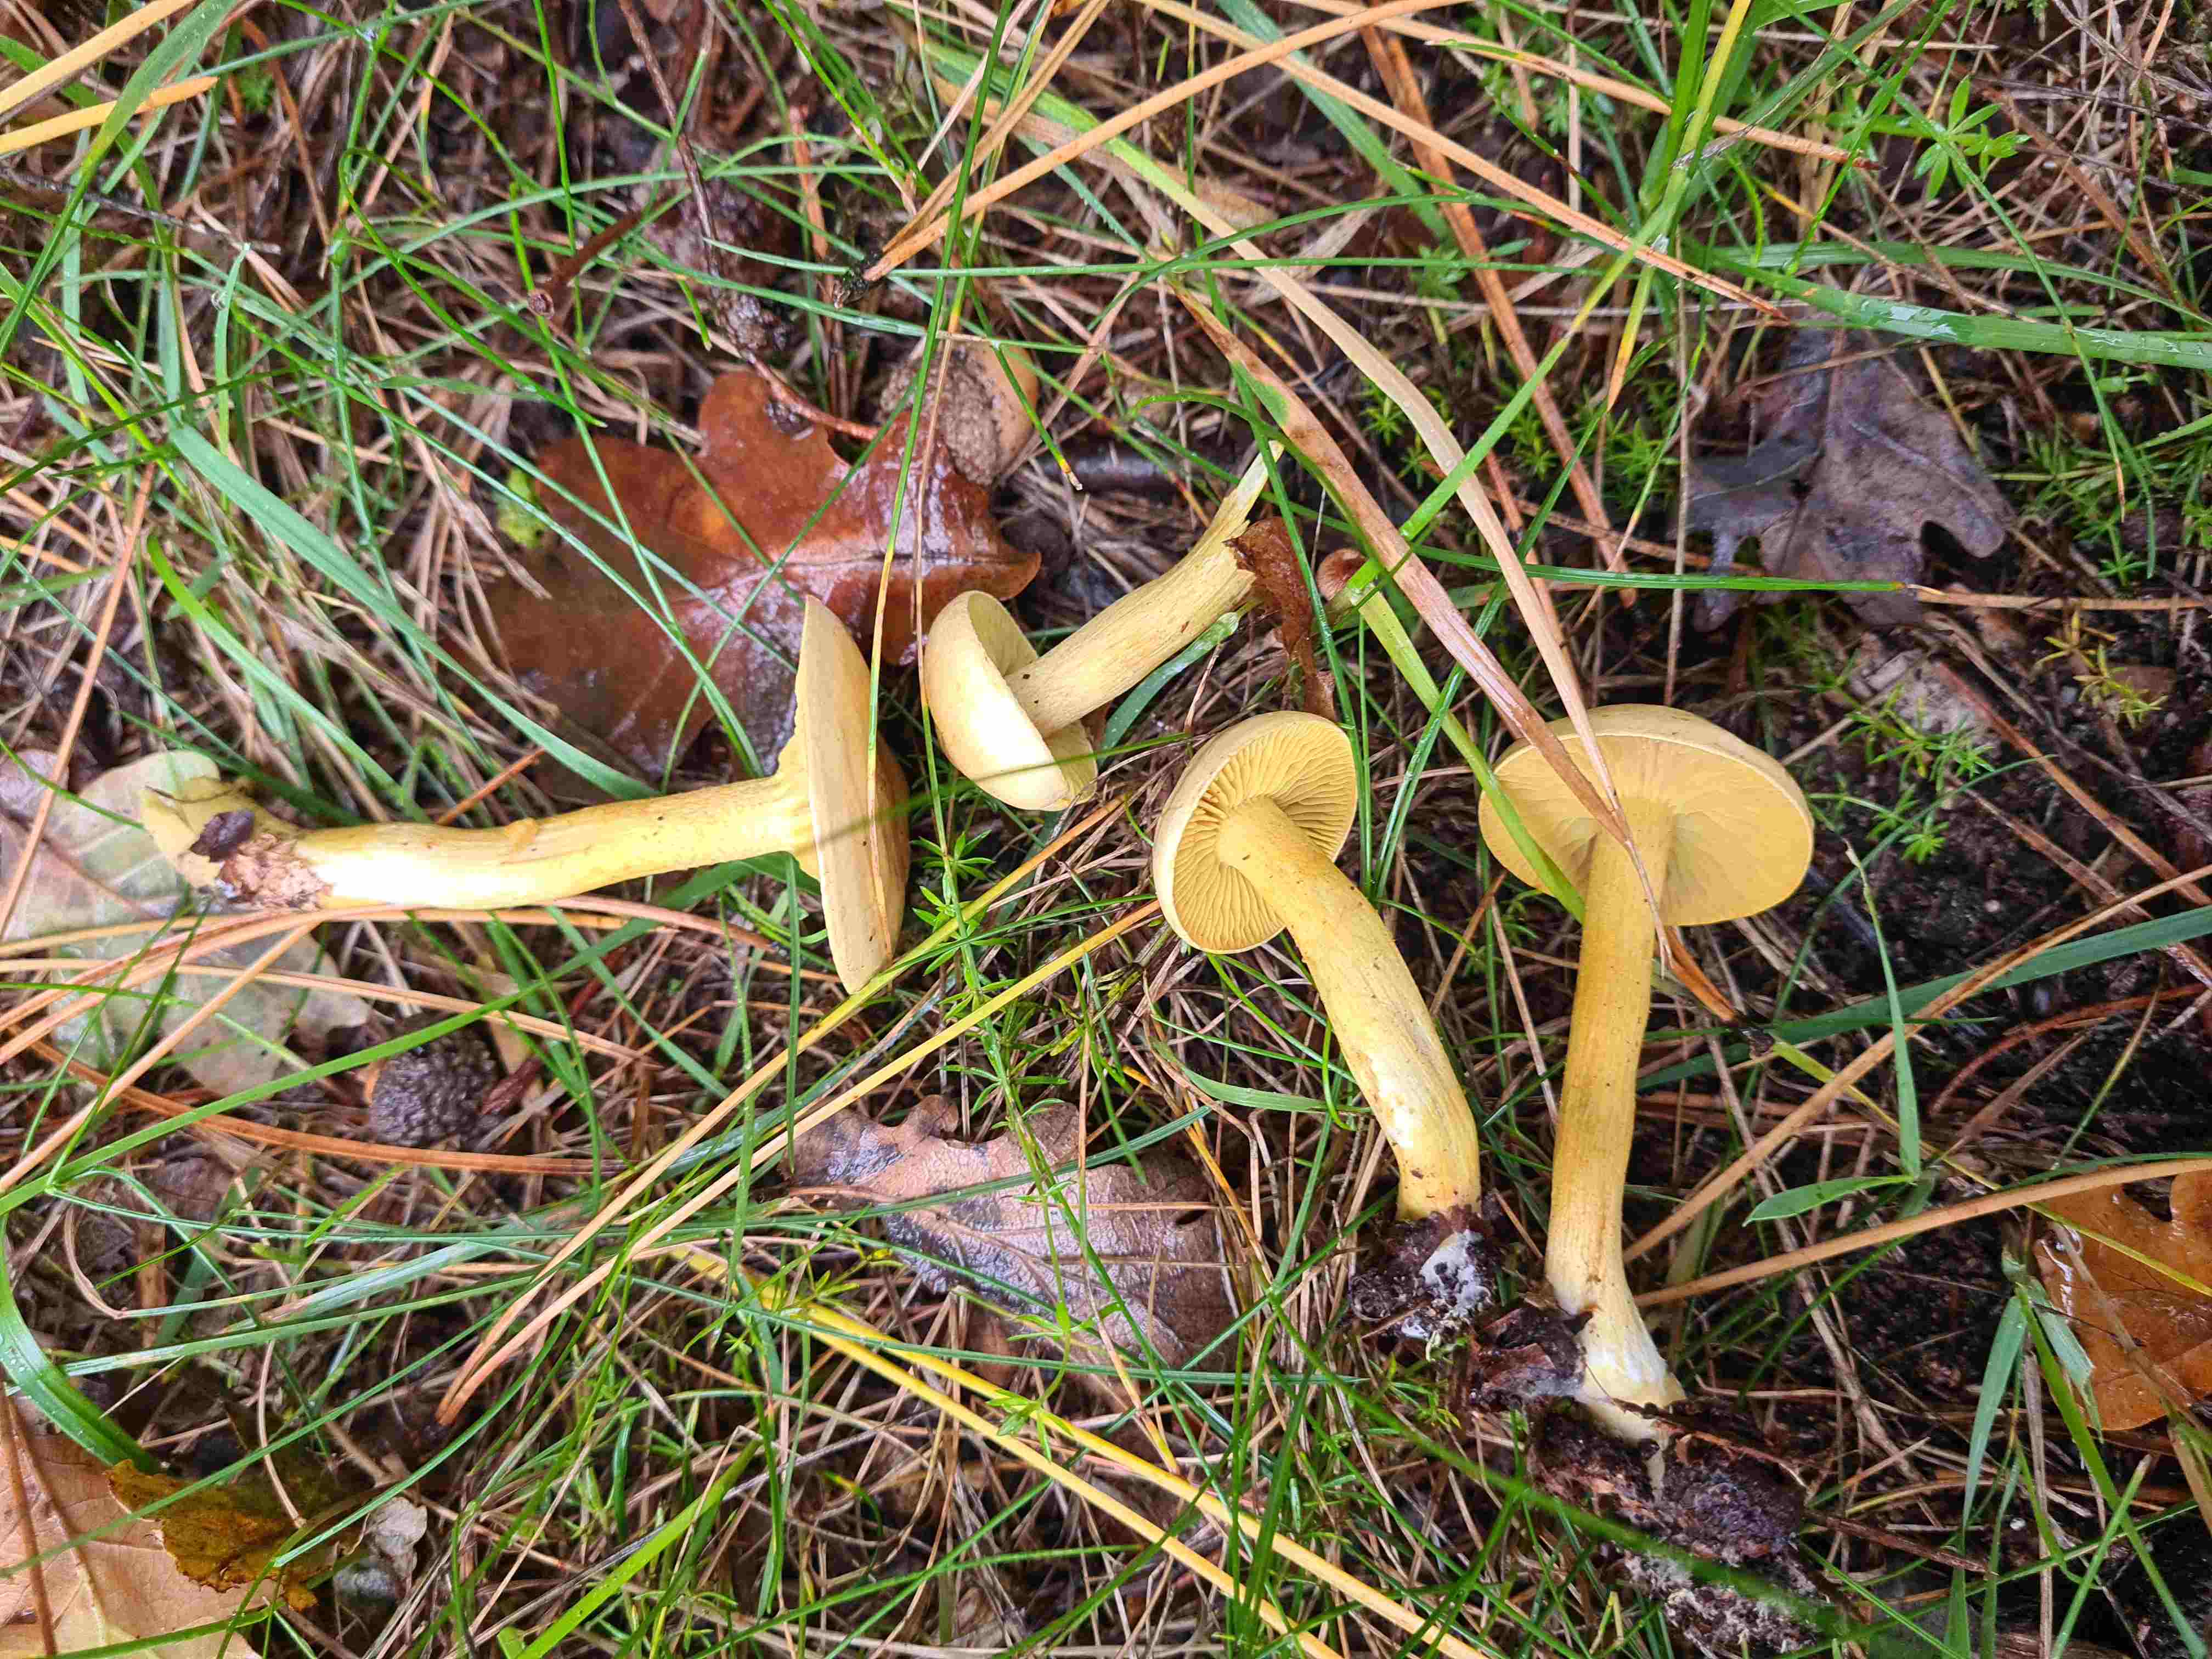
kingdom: Fungi
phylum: Basidiomycota
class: Agaricomycetes
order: Agaricales
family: Tricholomataceae
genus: Tricholoma
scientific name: Tricholoma sulphureum
